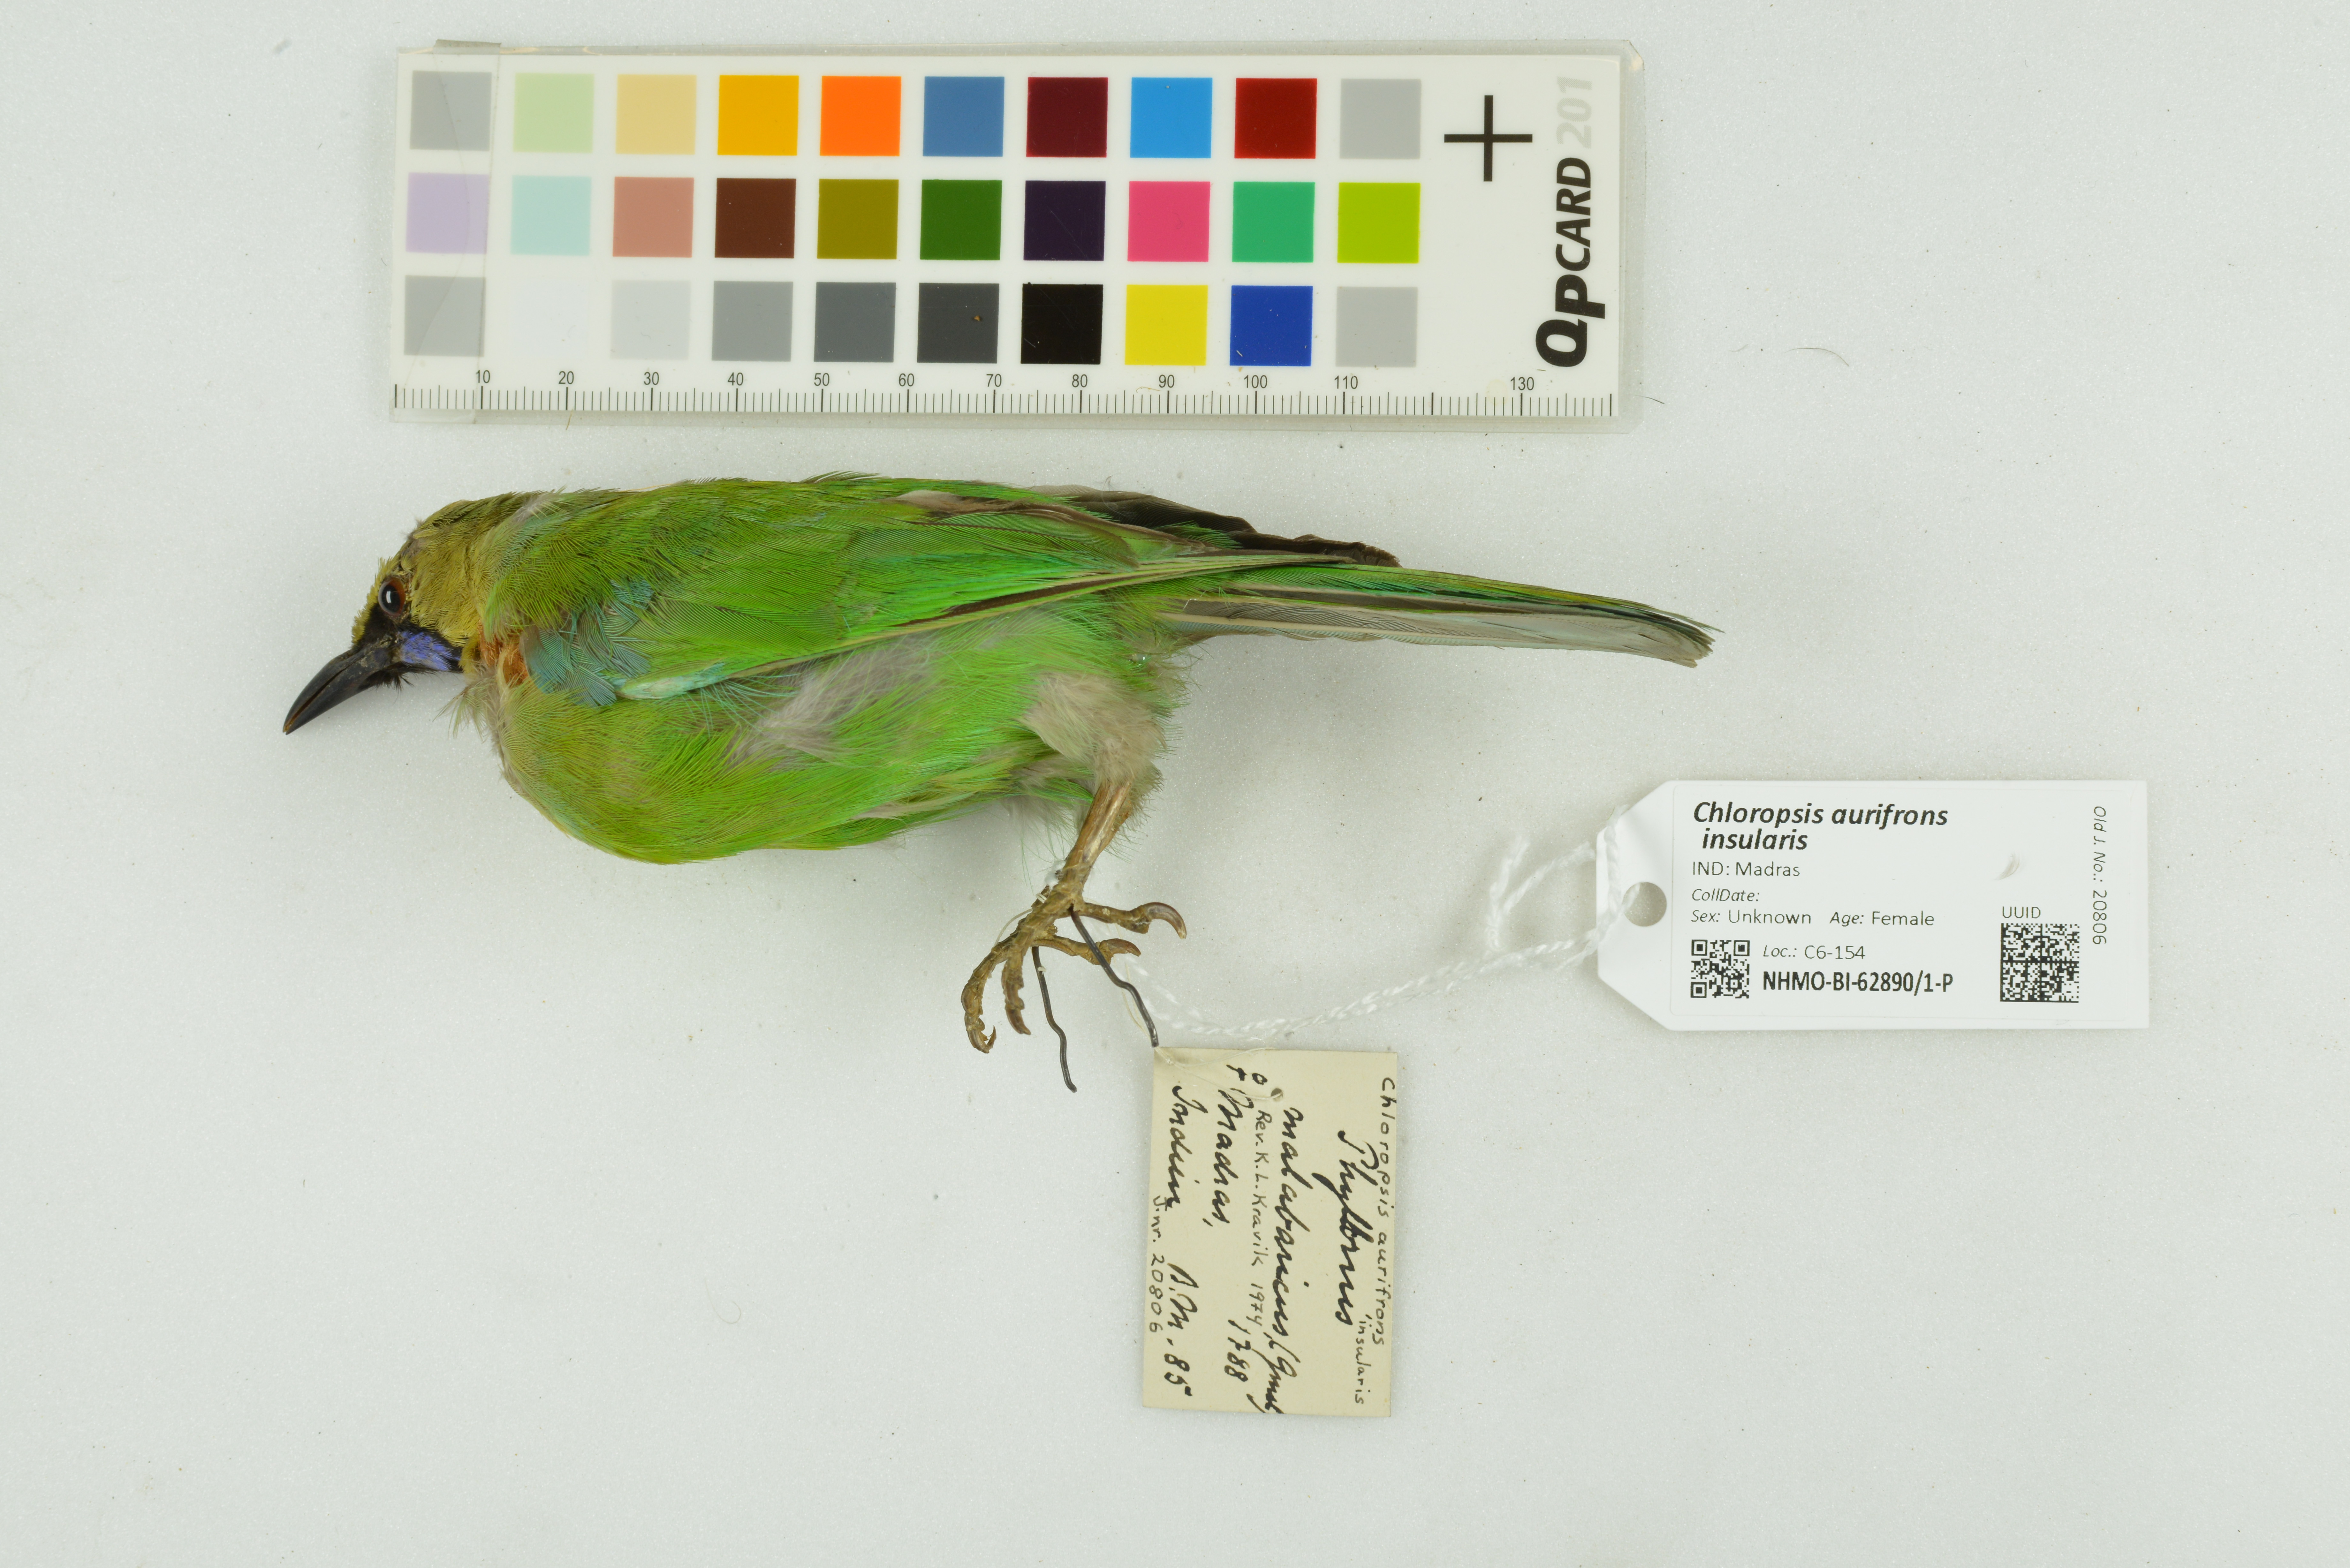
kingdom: Animalia
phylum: Chordata
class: Aves
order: Passeriformes
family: Chloropseidae
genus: Chloropsis
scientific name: Chloropsis aurifrons
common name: Golden-fronted leafbird
